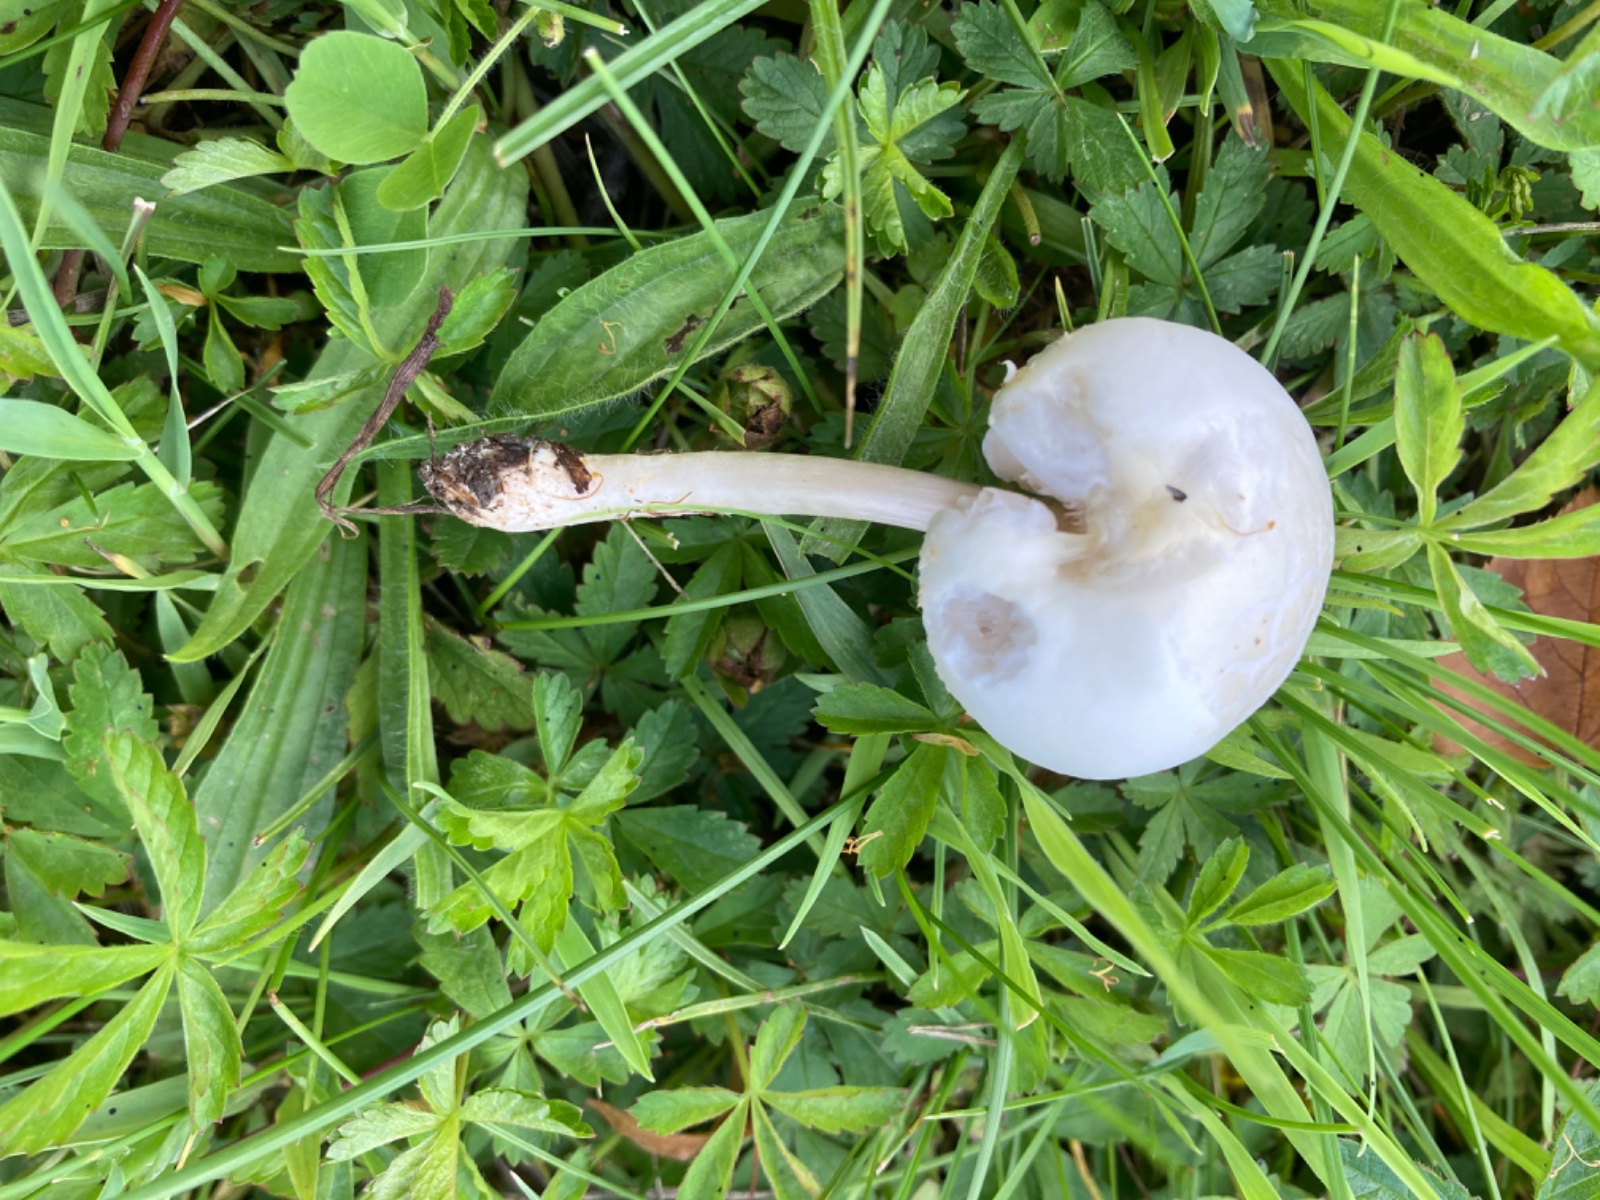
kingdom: Fungi
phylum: Basidiomycota
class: Agaricomycetes
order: Agaricales
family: Strophariaceae
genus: Agrocybe
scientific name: Agrocybe dura
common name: fastkødet agerhat
